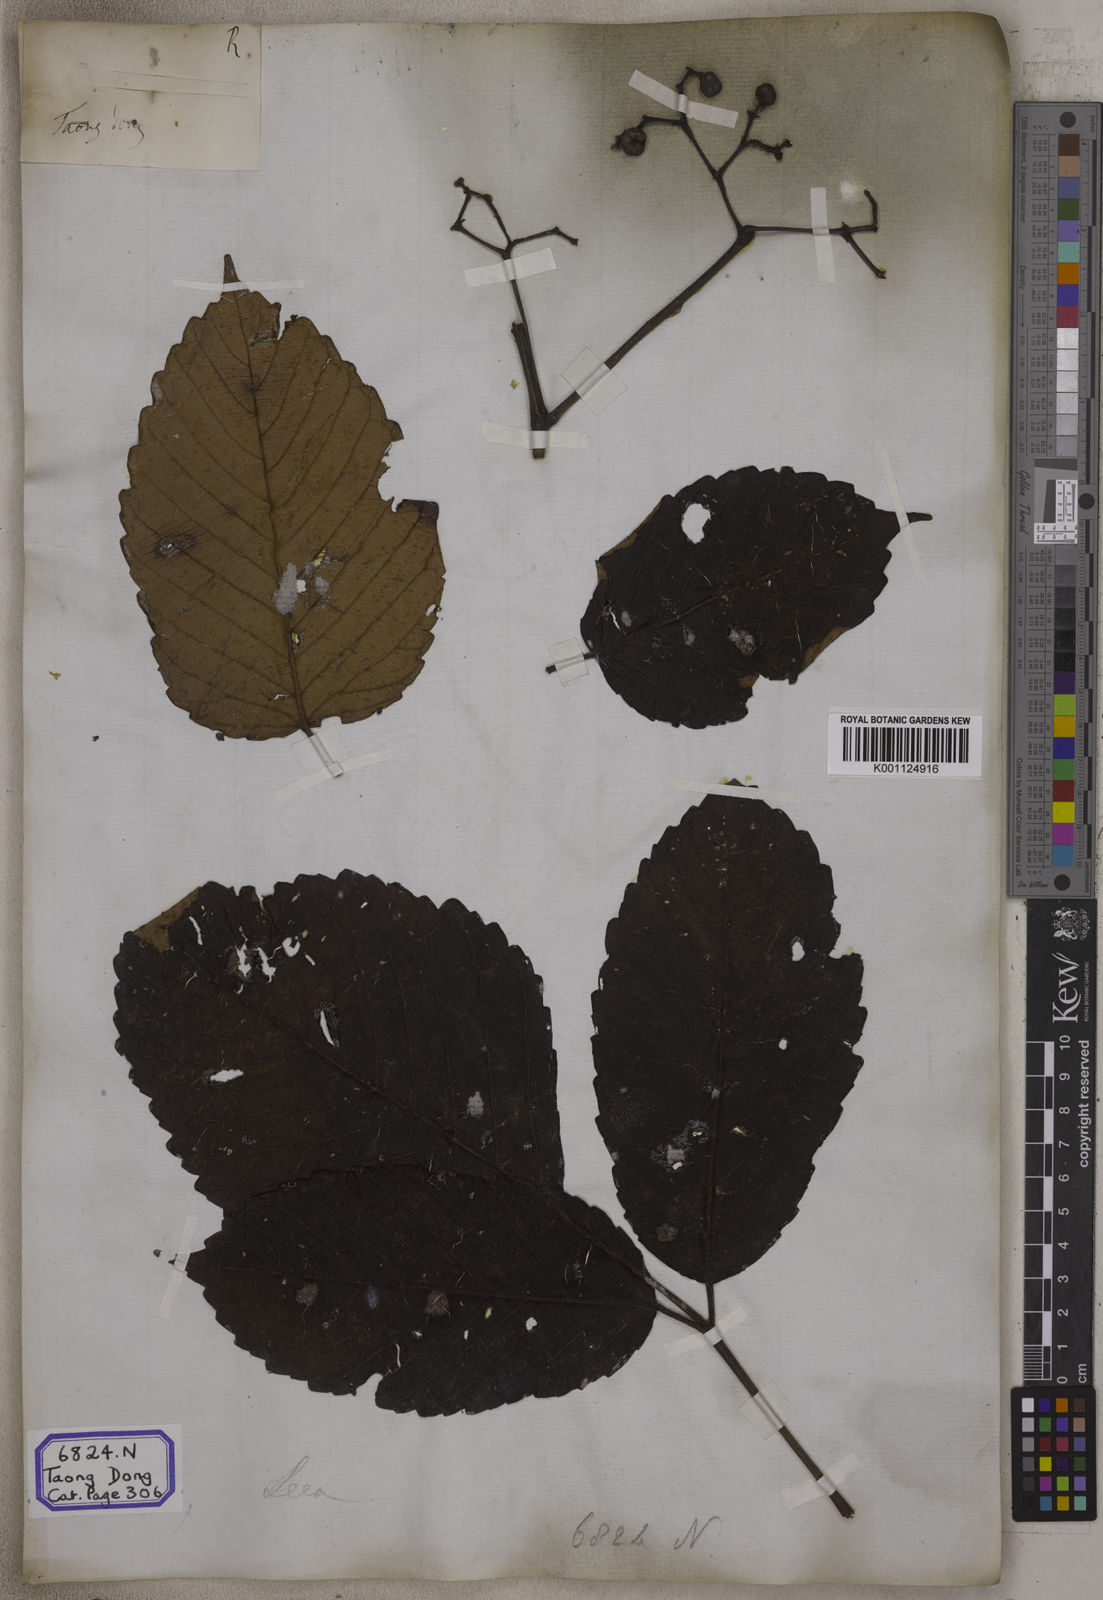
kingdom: Plantae
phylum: Tracheophyta
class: Magnoliopsida
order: Vitales
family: Vitaceae
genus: Leea
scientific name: Leea
